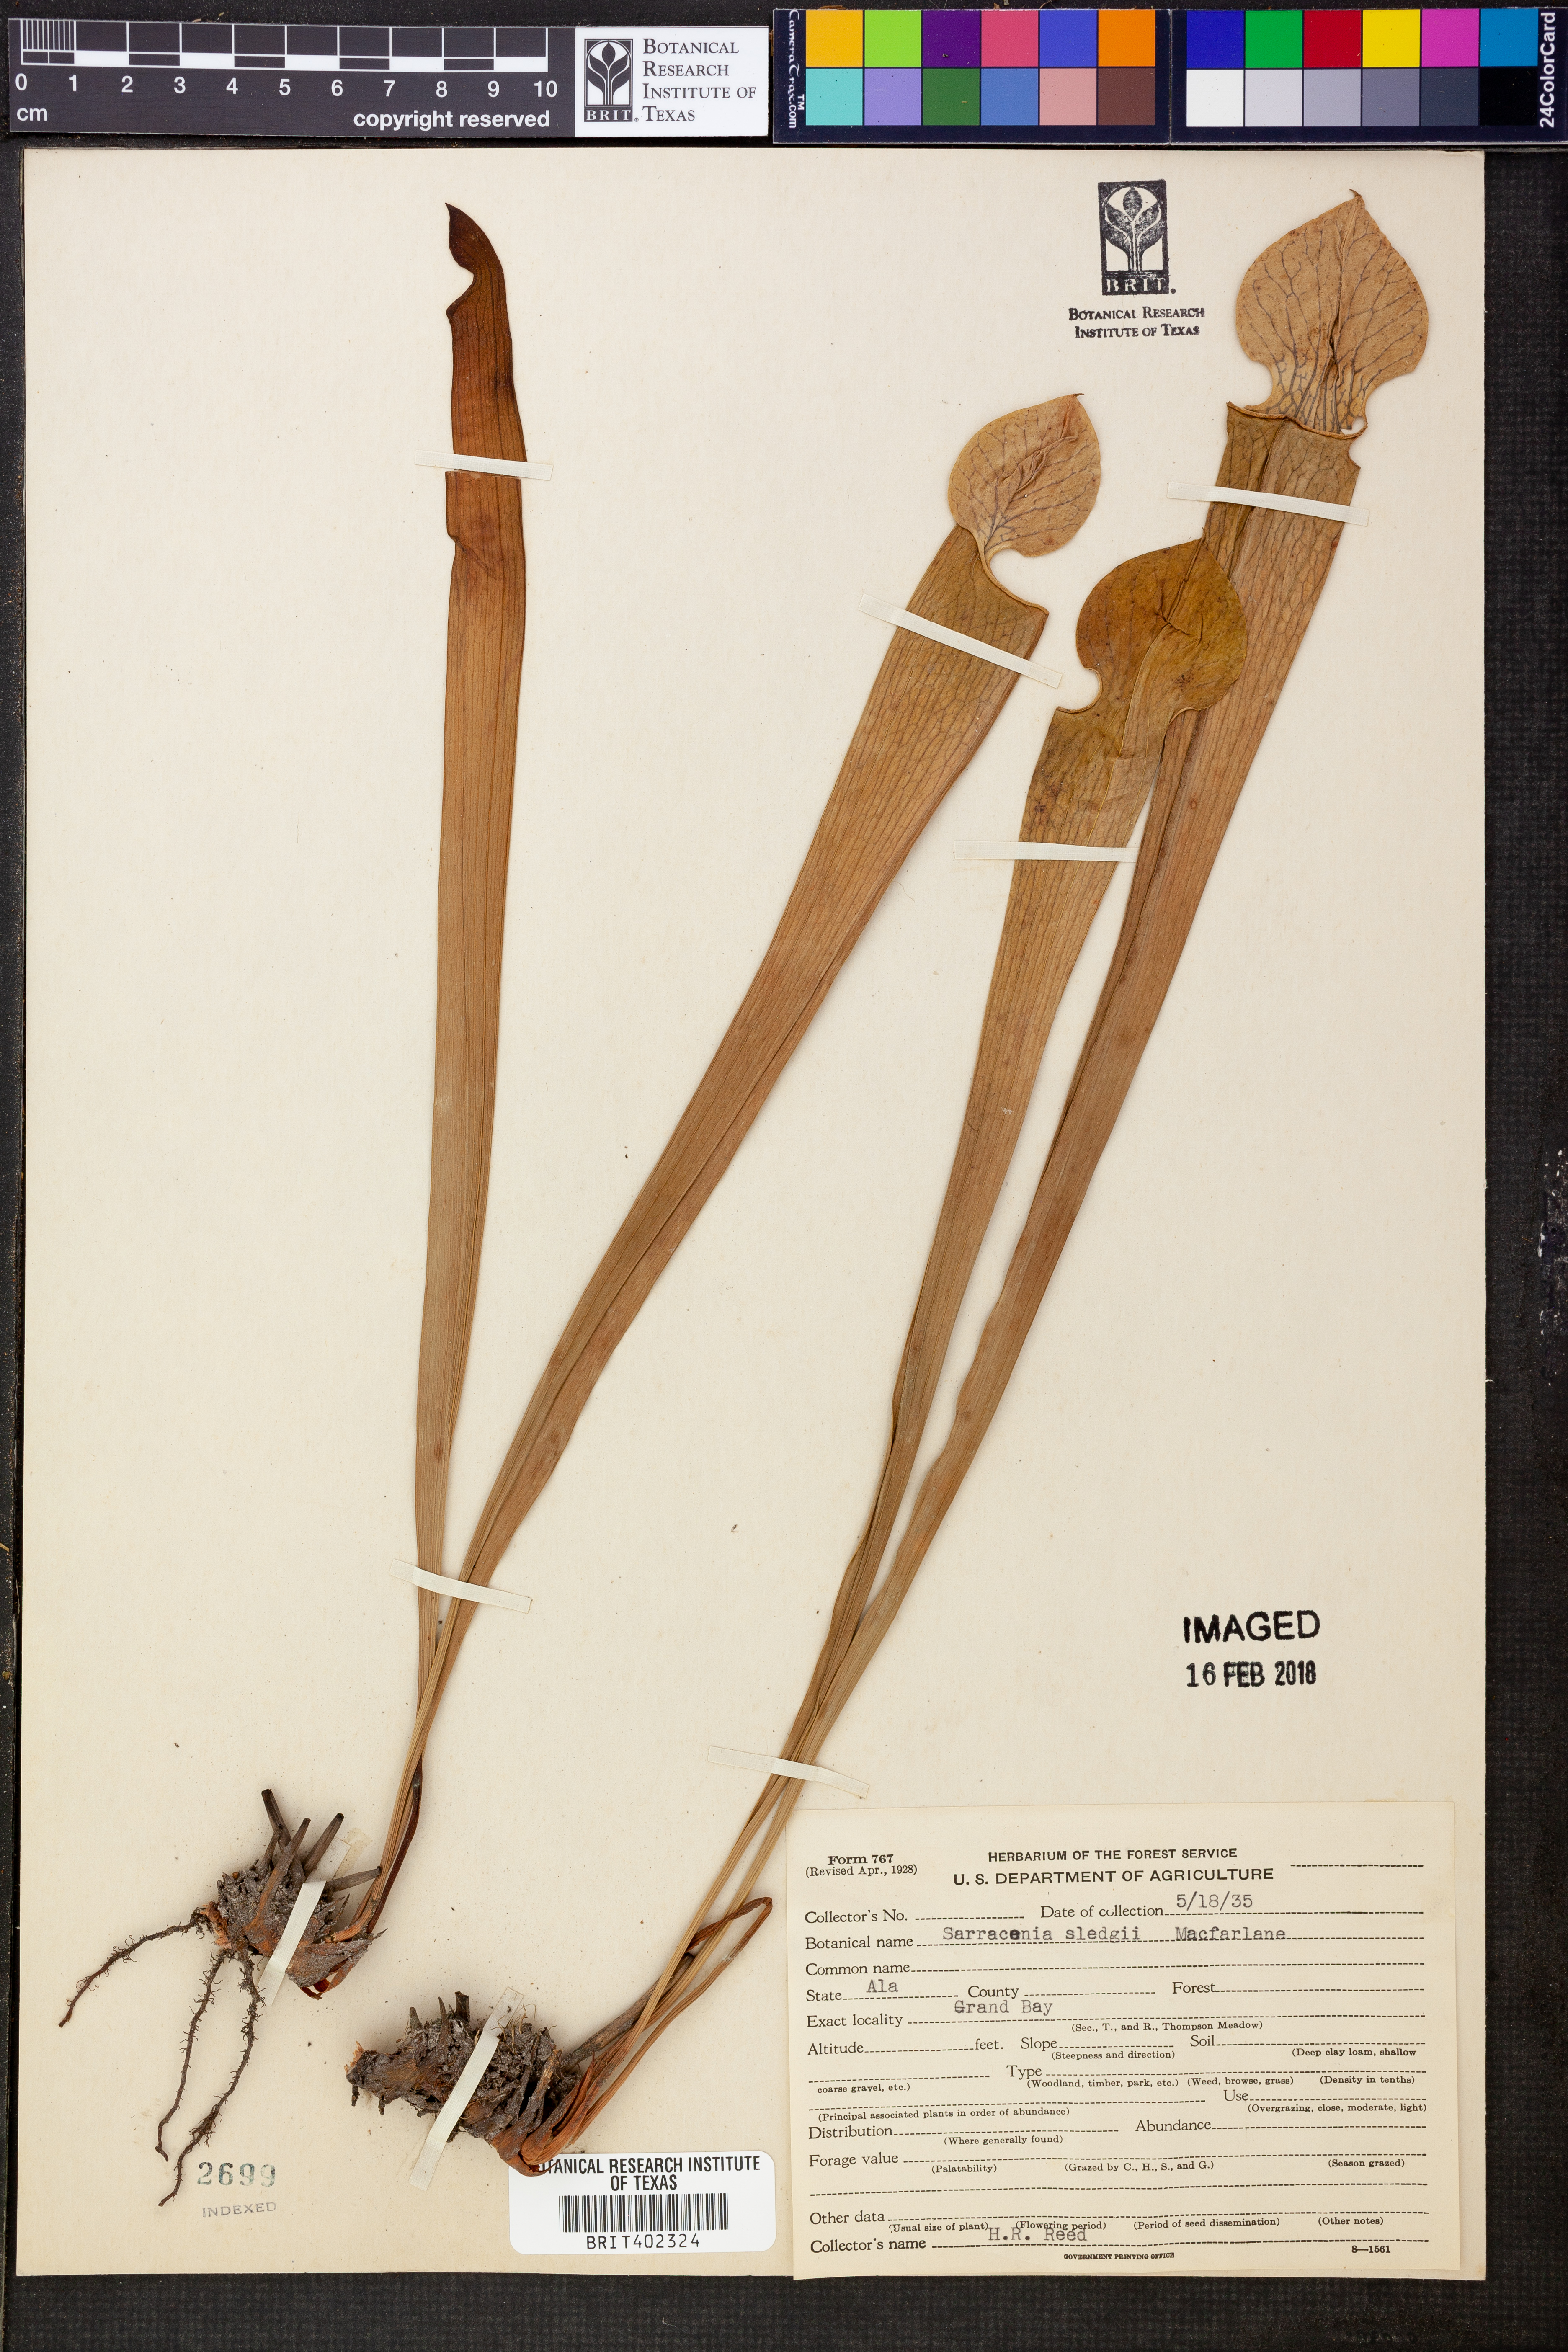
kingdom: Plantae
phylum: Tracheophyta
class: Magnoliopsida
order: Ericales
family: Sarraceniaceae
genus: Sarracenia
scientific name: Sarracenia alata
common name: Yellow trumpets
